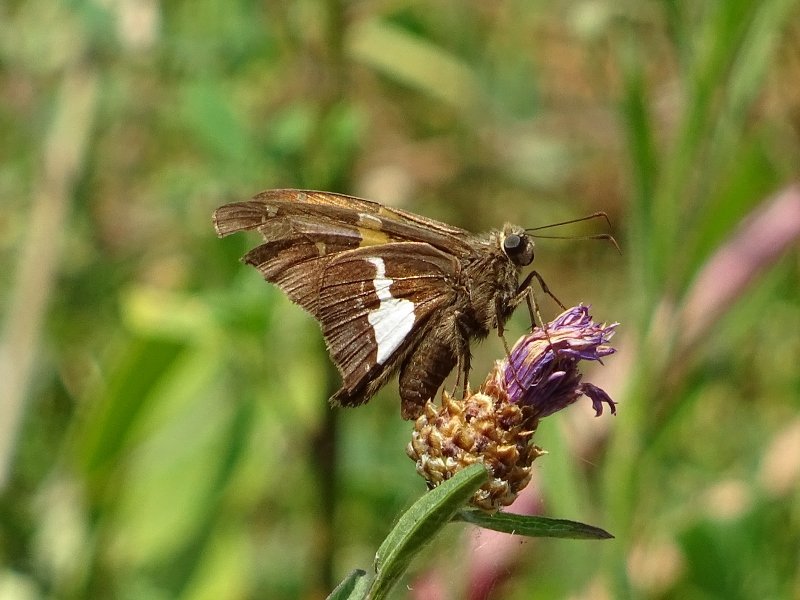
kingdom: Animalia
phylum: Arthropoda
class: Insecta
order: Lepidoptera
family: Hesperiidae
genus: Epargyreus
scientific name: Epargyreus clarus
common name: Silver-spotted Skipper
